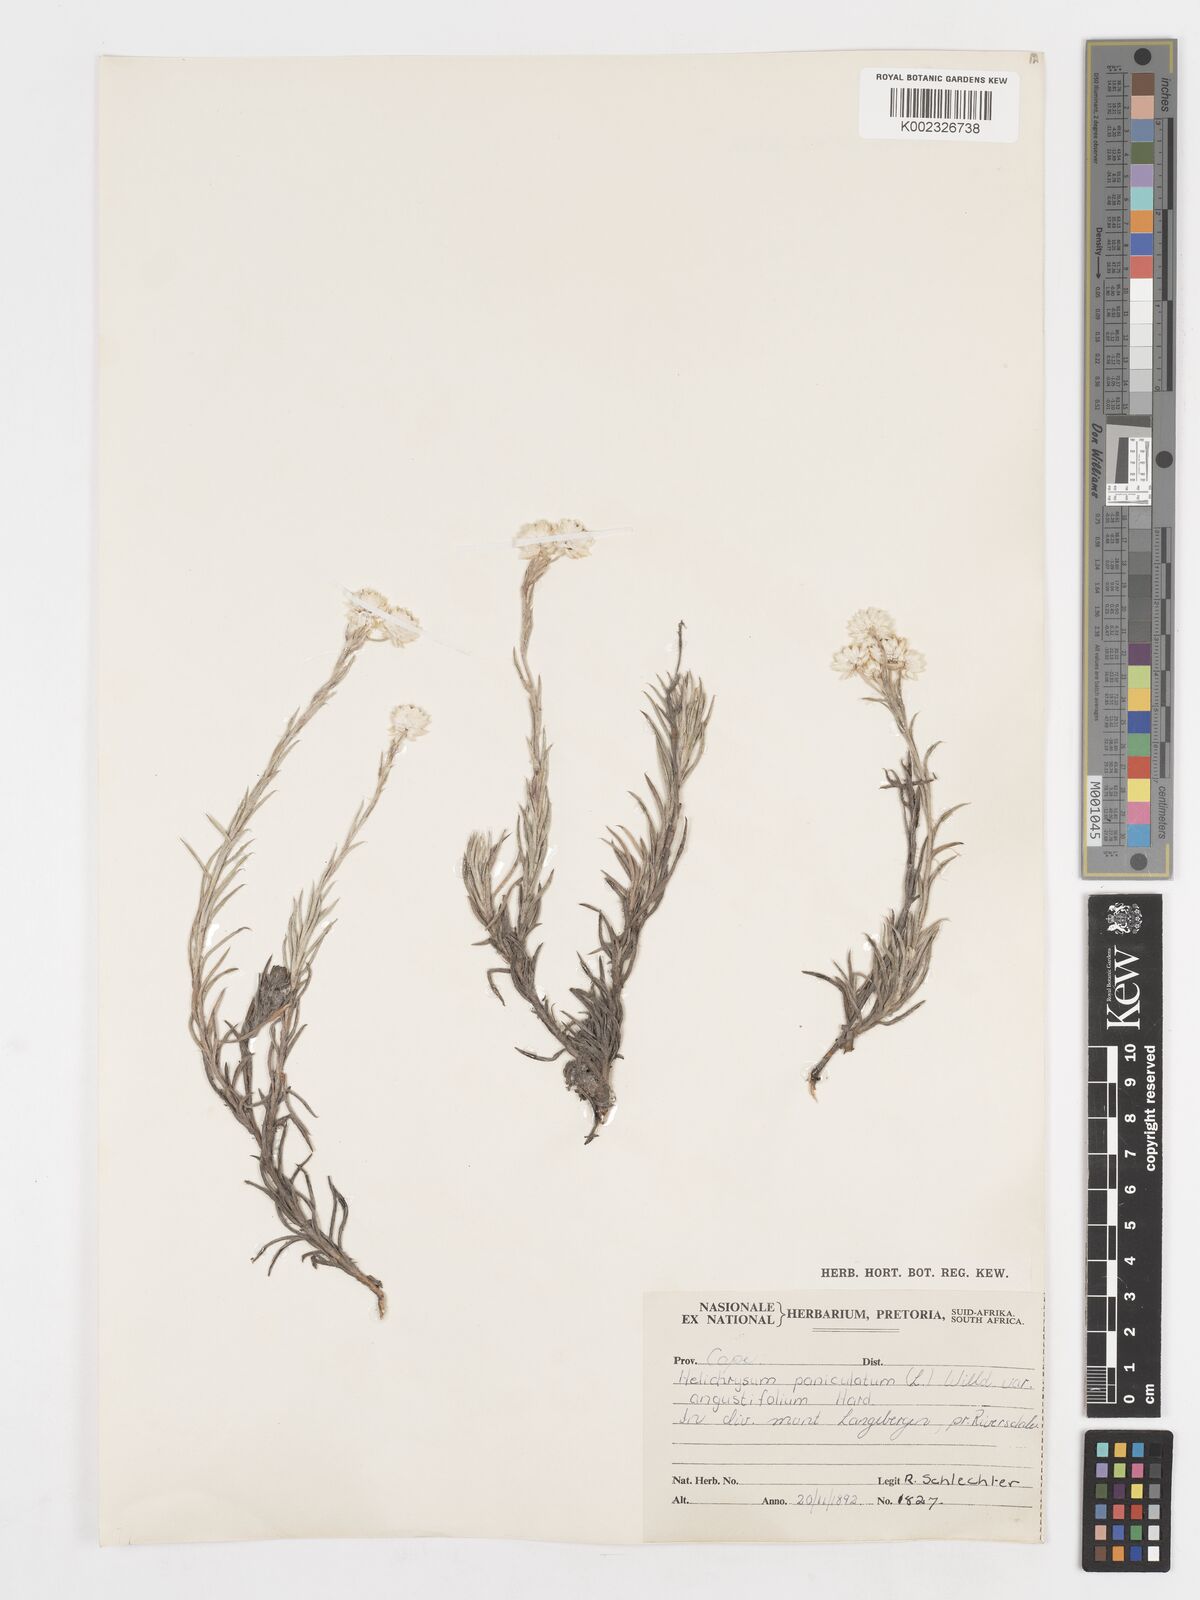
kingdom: Plantae
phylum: Tracheophyta
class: Magnoliopsida
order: Asterales
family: Asteraceae
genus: Achyranthemum
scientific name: Achyranthemum paniculatum
